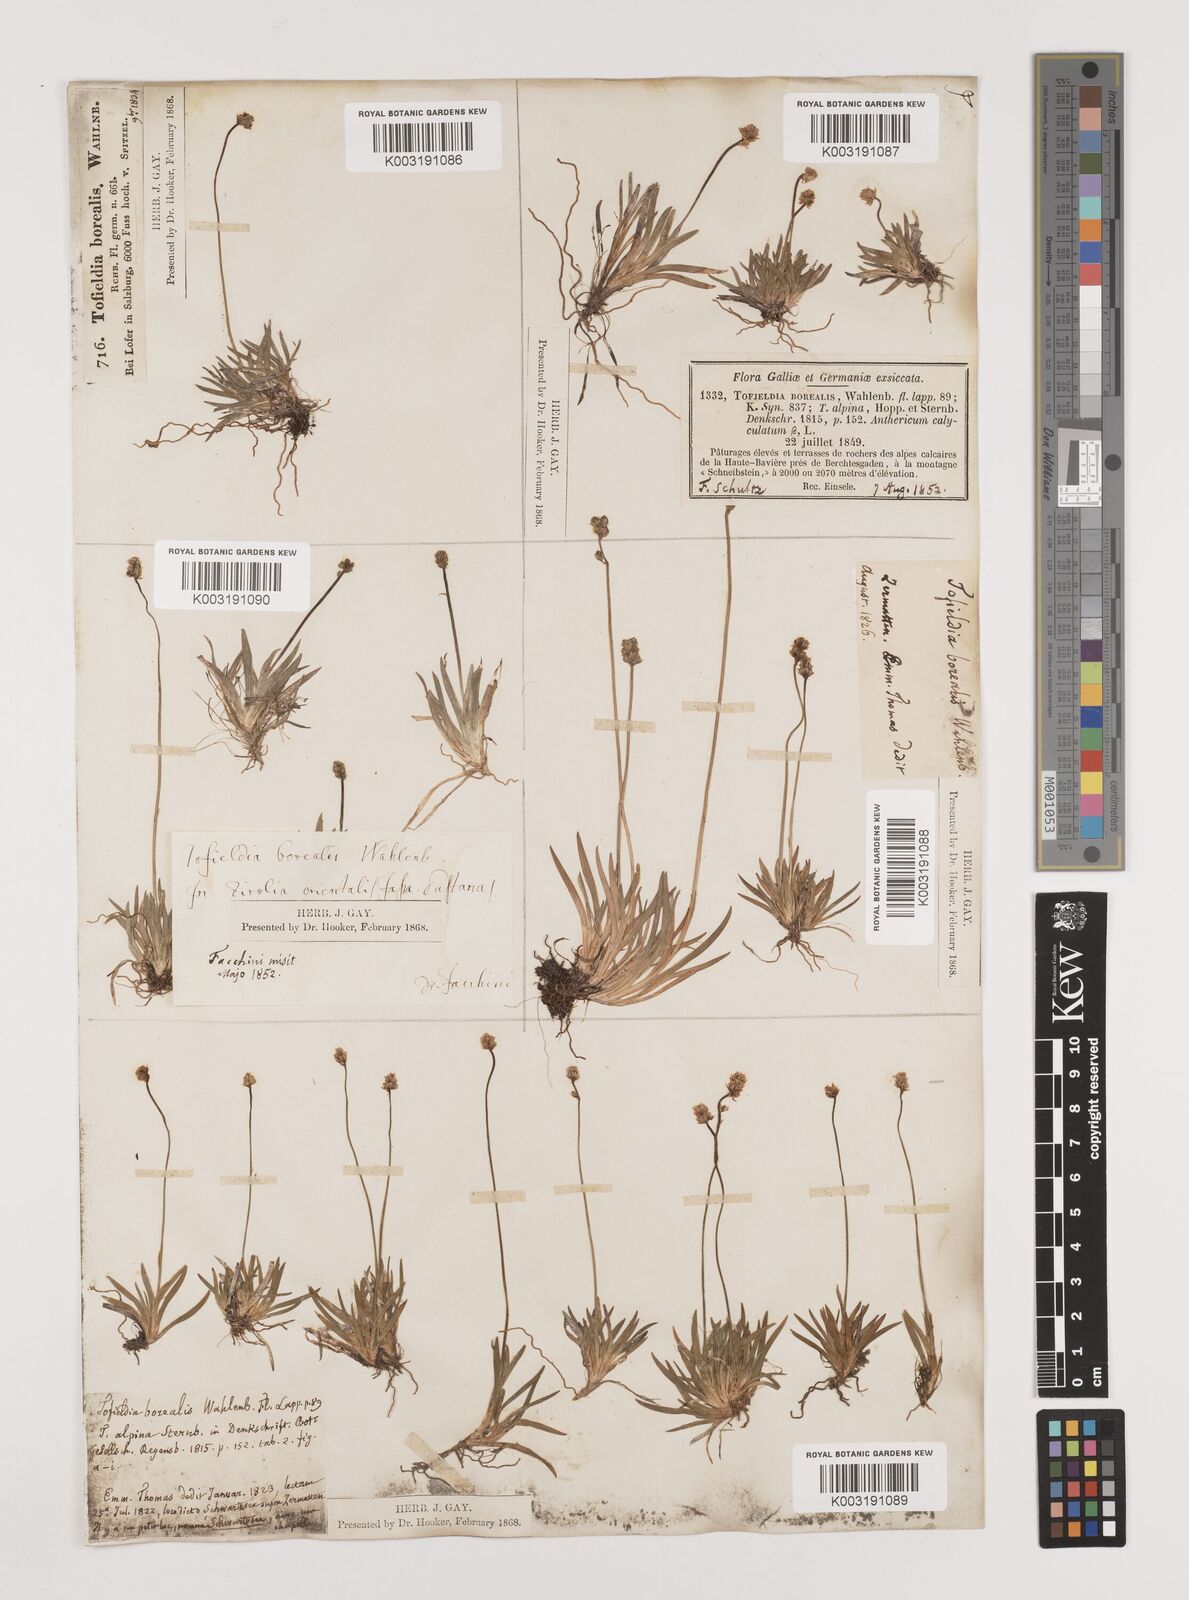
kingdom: Plantae
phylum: Tracheophyta
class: Liliopsida
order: Alismatales
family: Tofieldiaceae
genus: Tofieldia
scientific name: Tofieldia pusilla
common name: Scottish false asphodel
